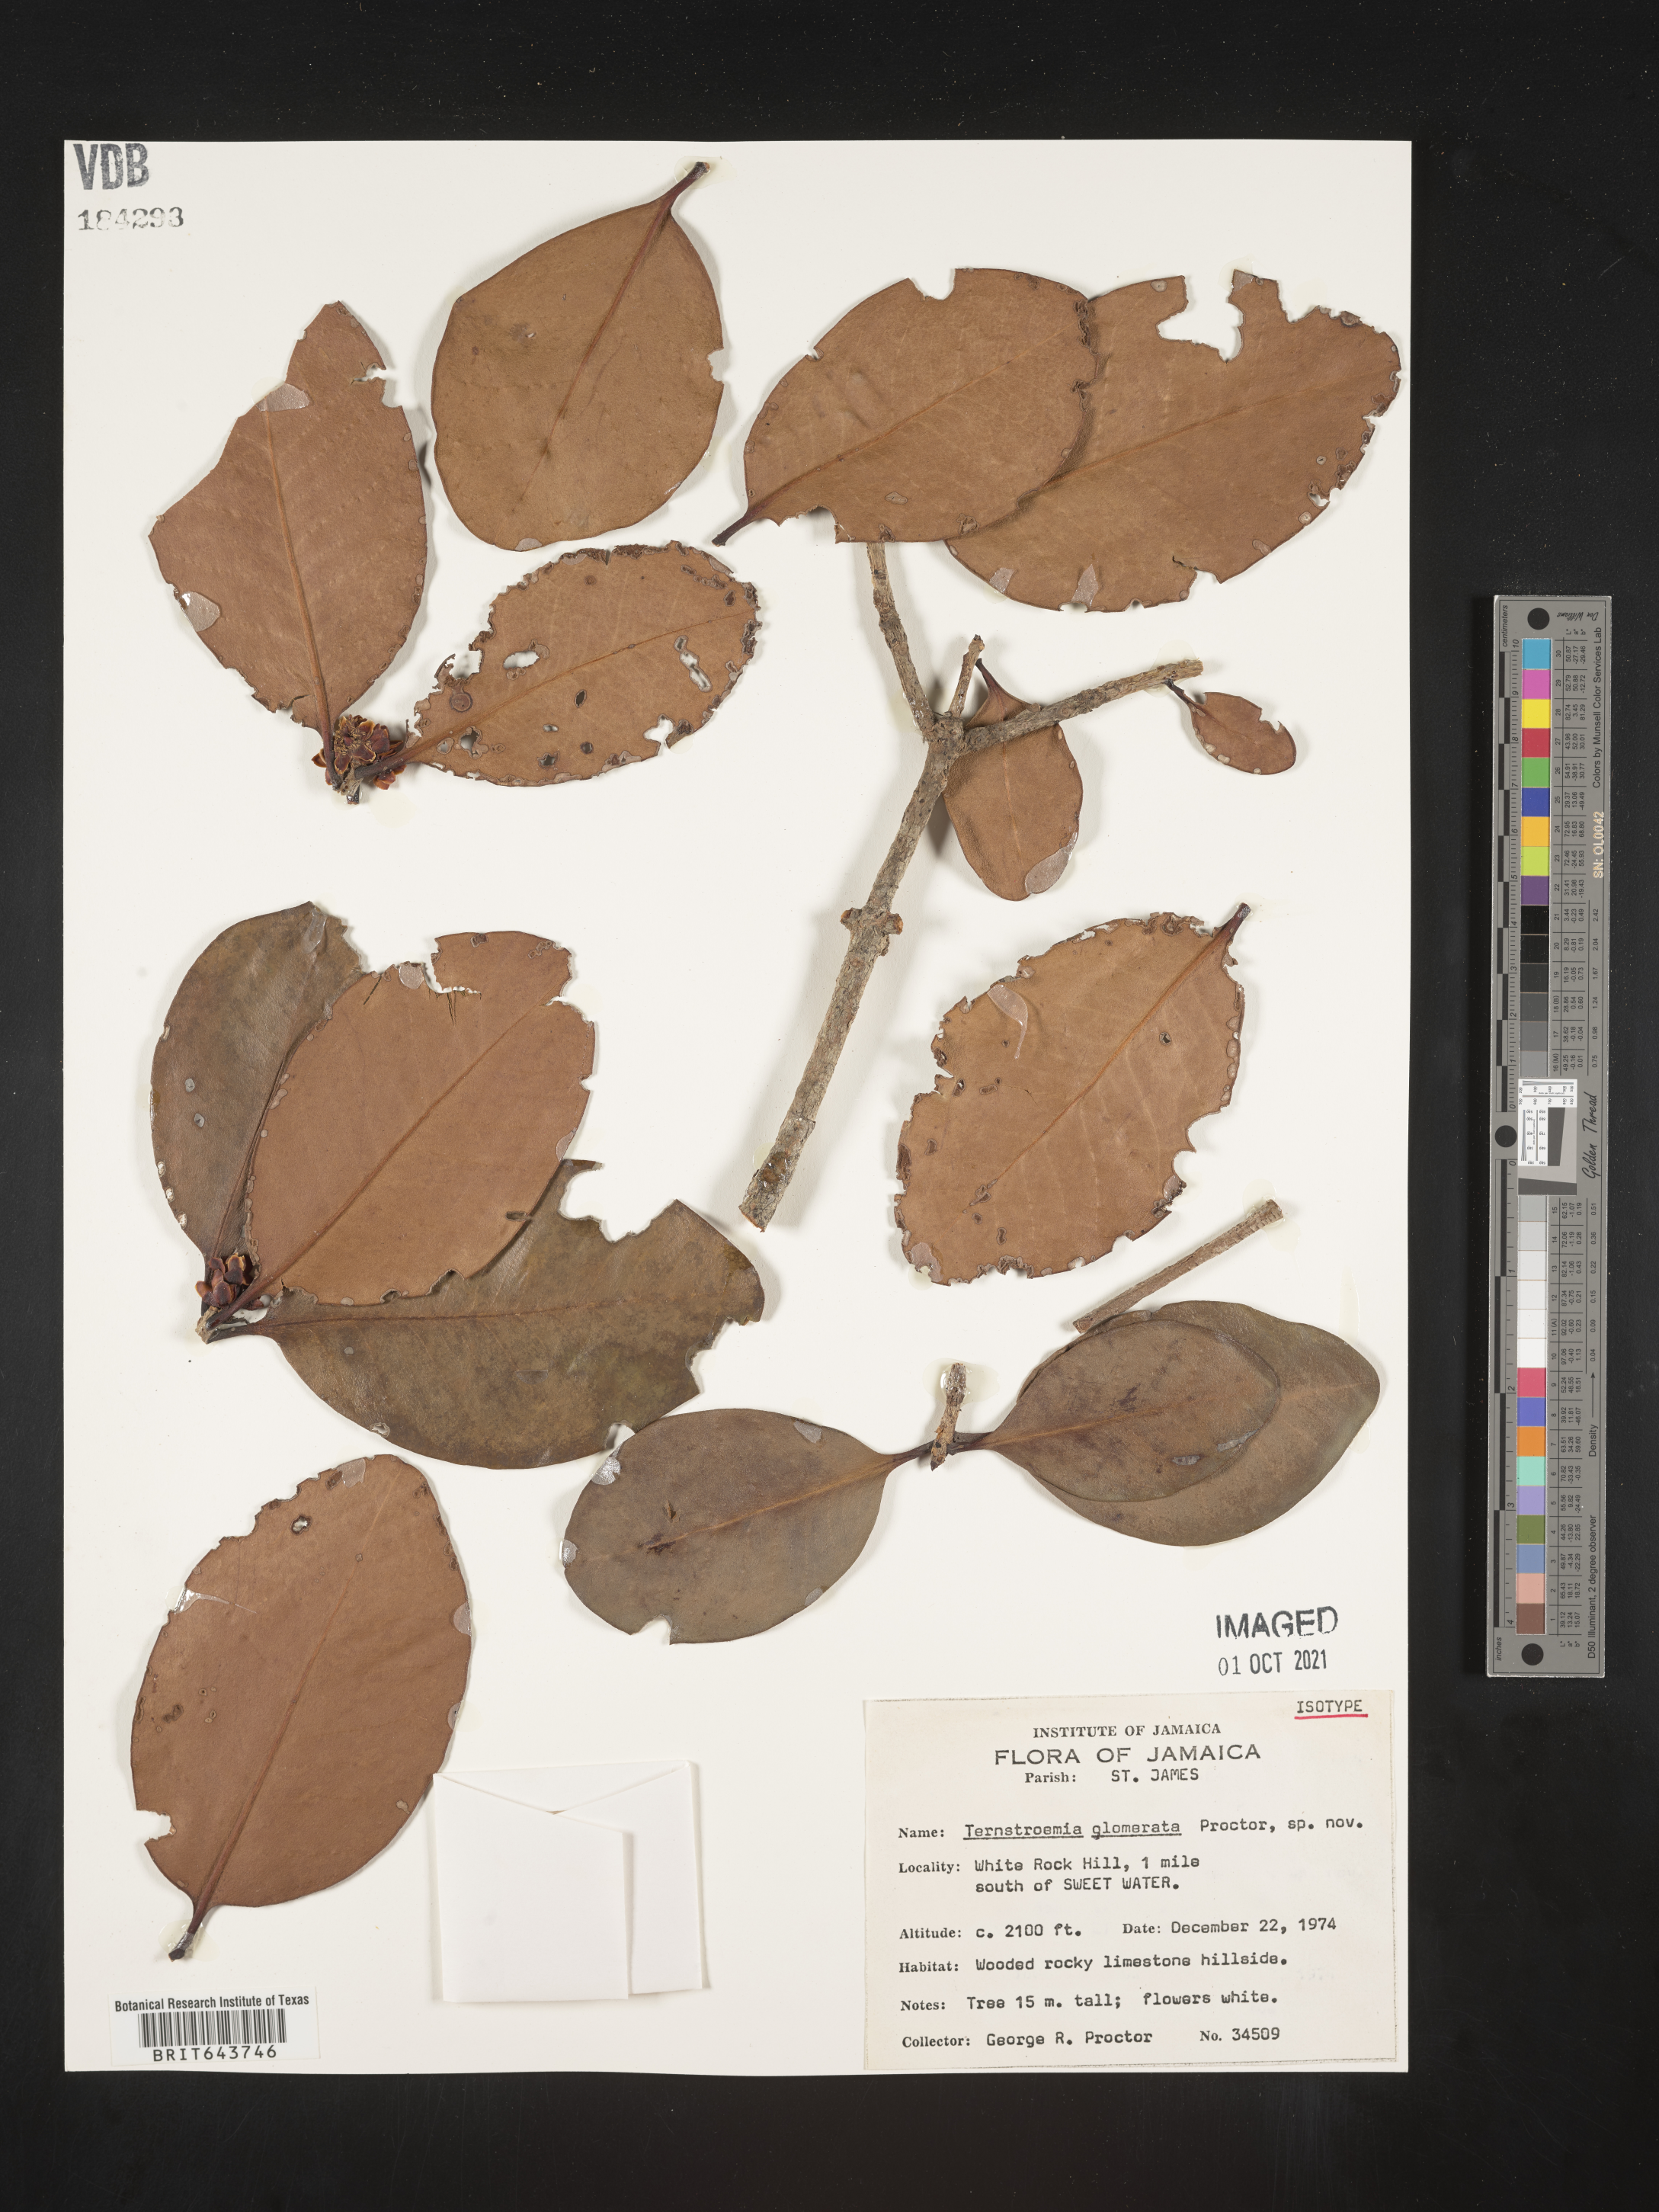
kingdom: Plantae
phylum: Tracheophyta
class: Magnoliopsida
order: Ericales
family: Pentaphylacaceae
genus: Ternstroemia
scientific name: Ternstroemia
